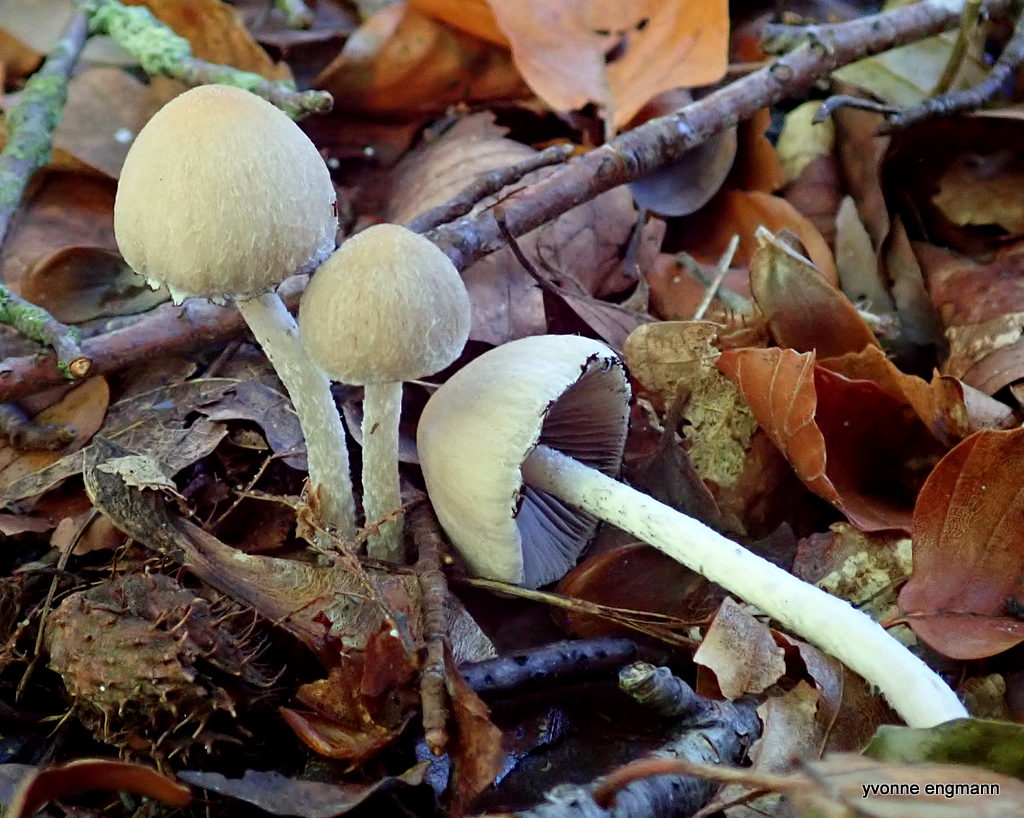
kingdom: Fungi
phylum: Basidiomycota
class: Agaricomycetes
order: Agaricales
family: Psathyrellaceae
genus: Candolleomyces
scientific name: Candolleomyces candolleanus
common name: Candolles mørkhat
